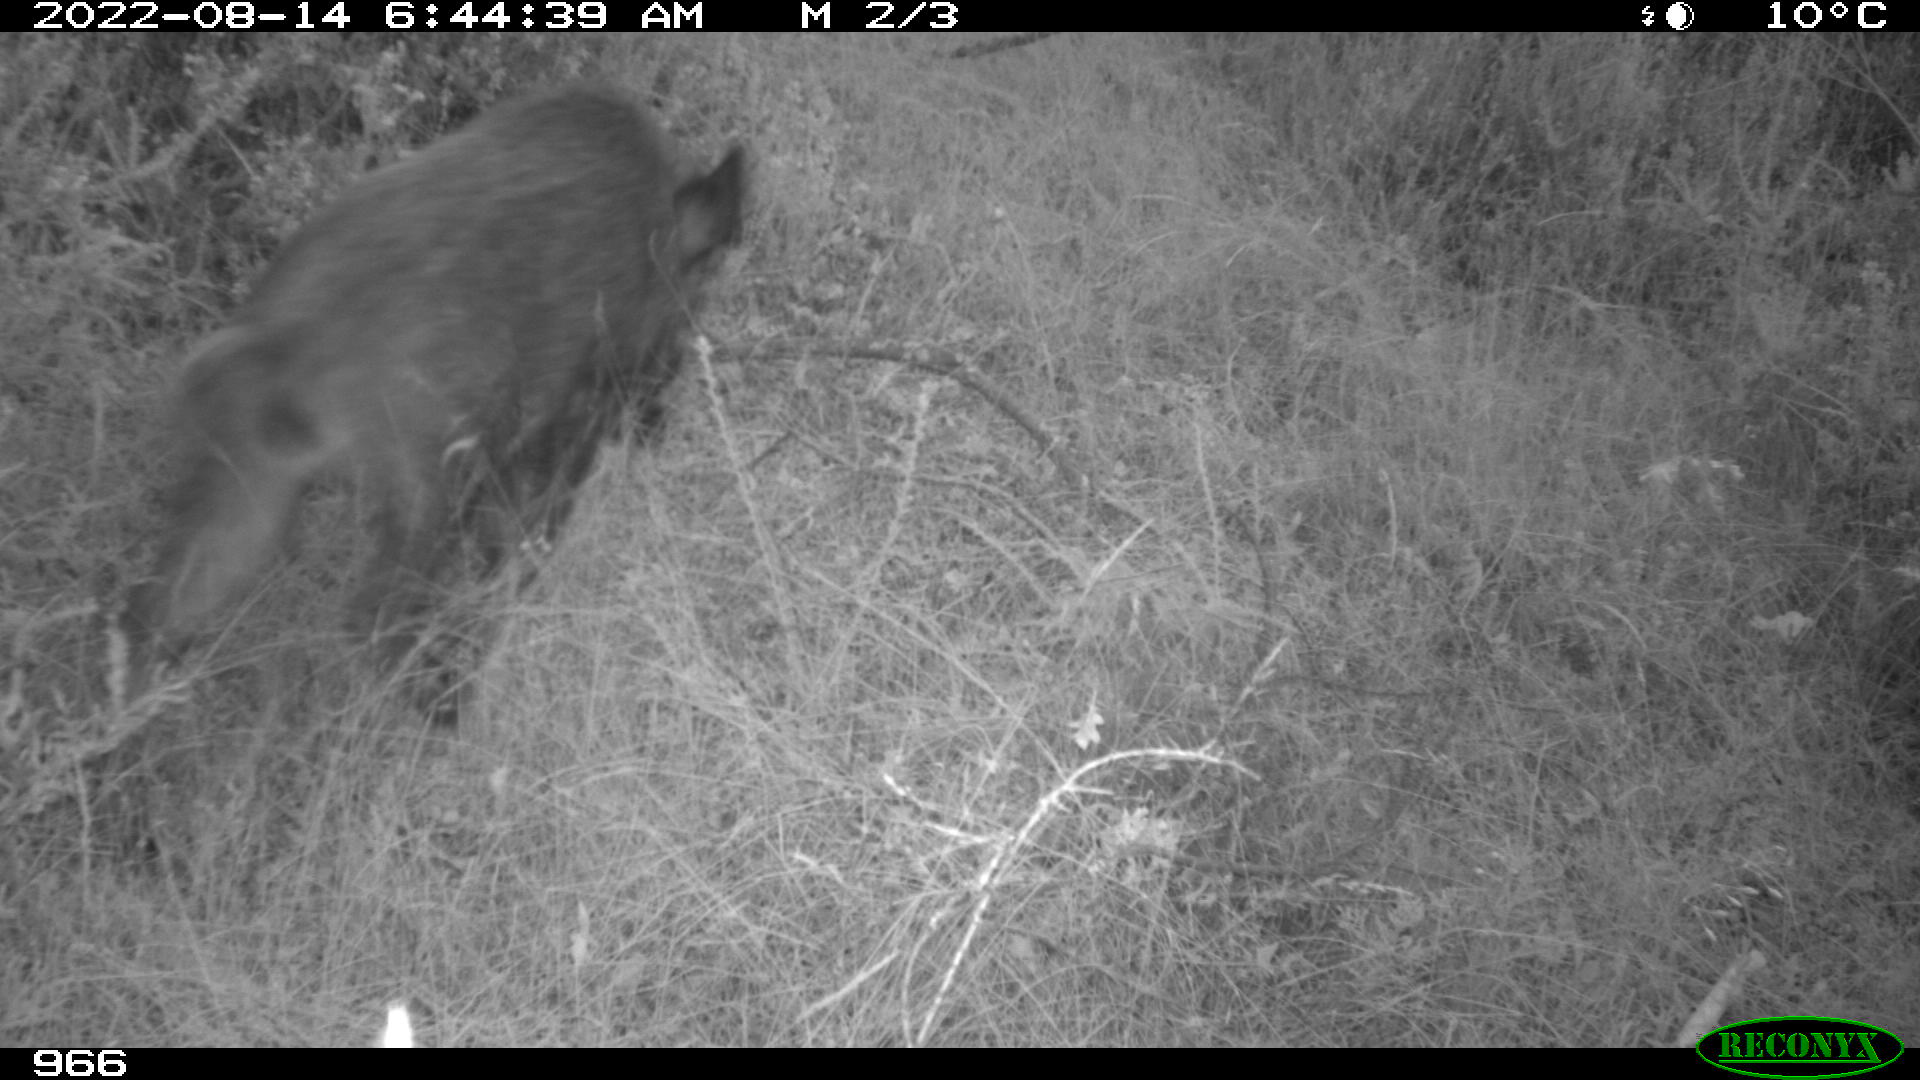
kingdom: Animalia
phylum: Chordata
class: Mammalia
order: Artiodactyla
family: Suidae
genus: Sus
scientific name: Sus scrofa
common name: Wild boar
